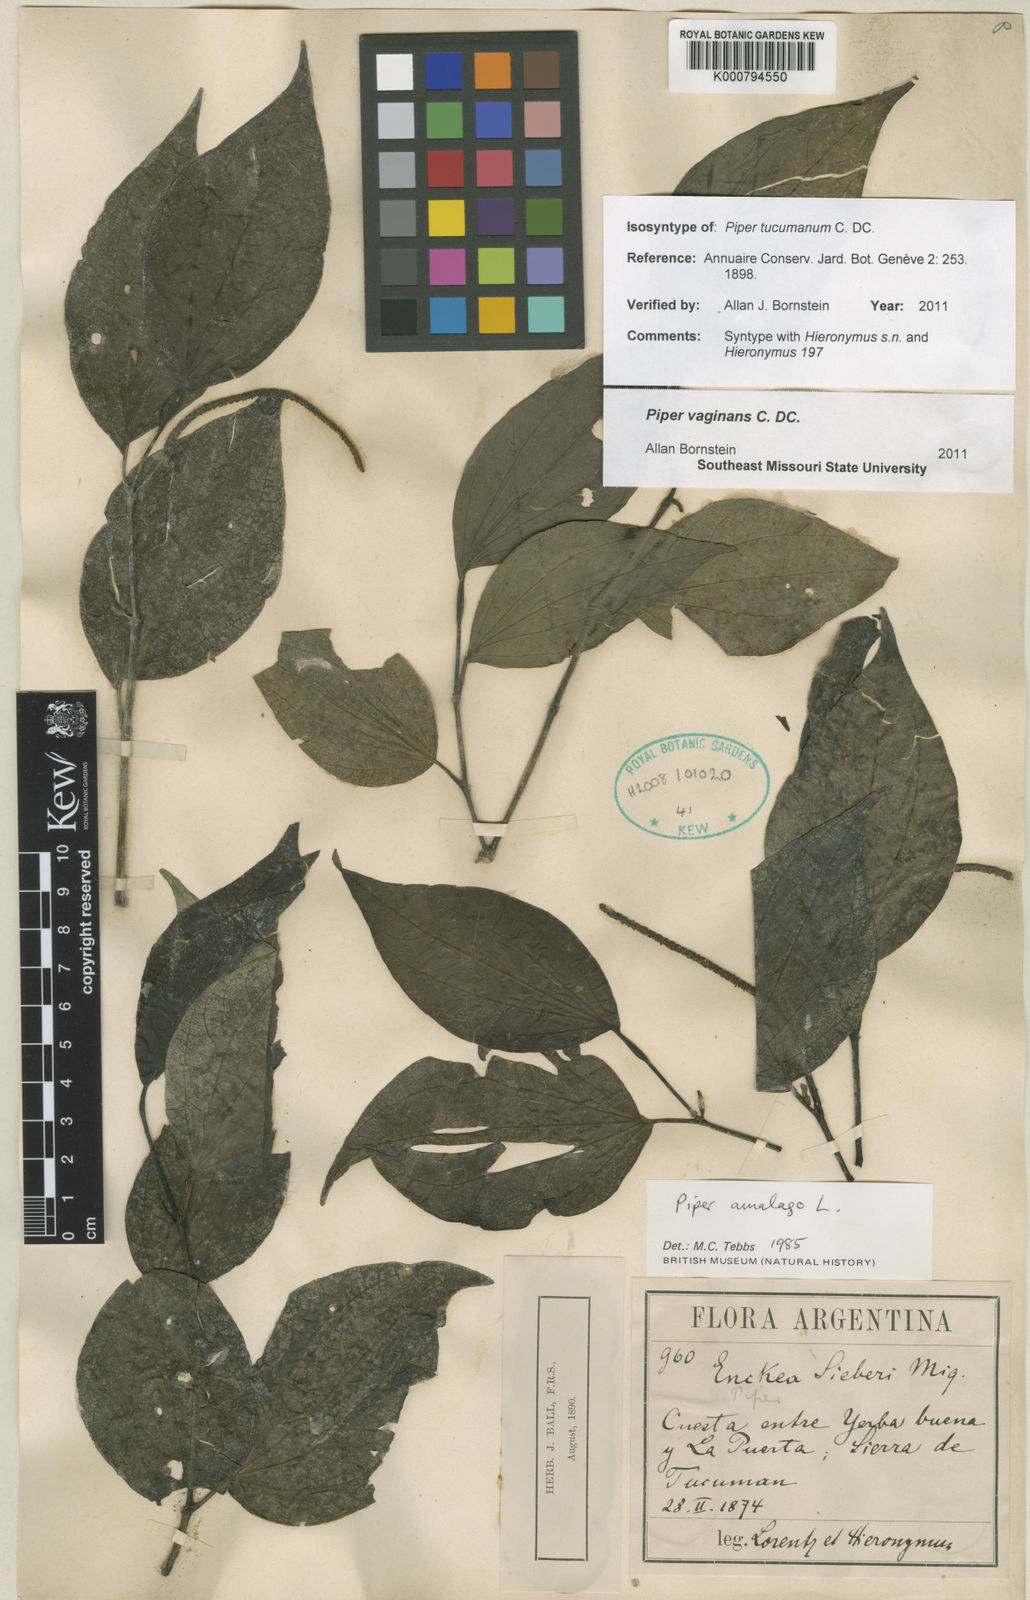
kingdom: Plantae
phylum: Tracheophyta
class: Magnoliopsida
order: Piperales
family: Piperaceae
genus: Piper
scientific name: Piper vaginans
